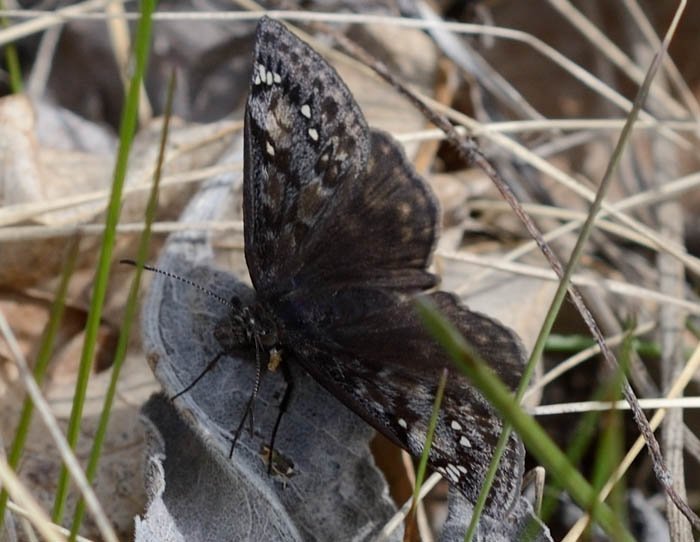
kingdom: Animalia
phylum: Arthropoda
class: Insecta
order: Lepidoptera
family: Hesperiidae
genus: Gesta
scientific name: Gesta
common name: Juvenal's Duskywing
